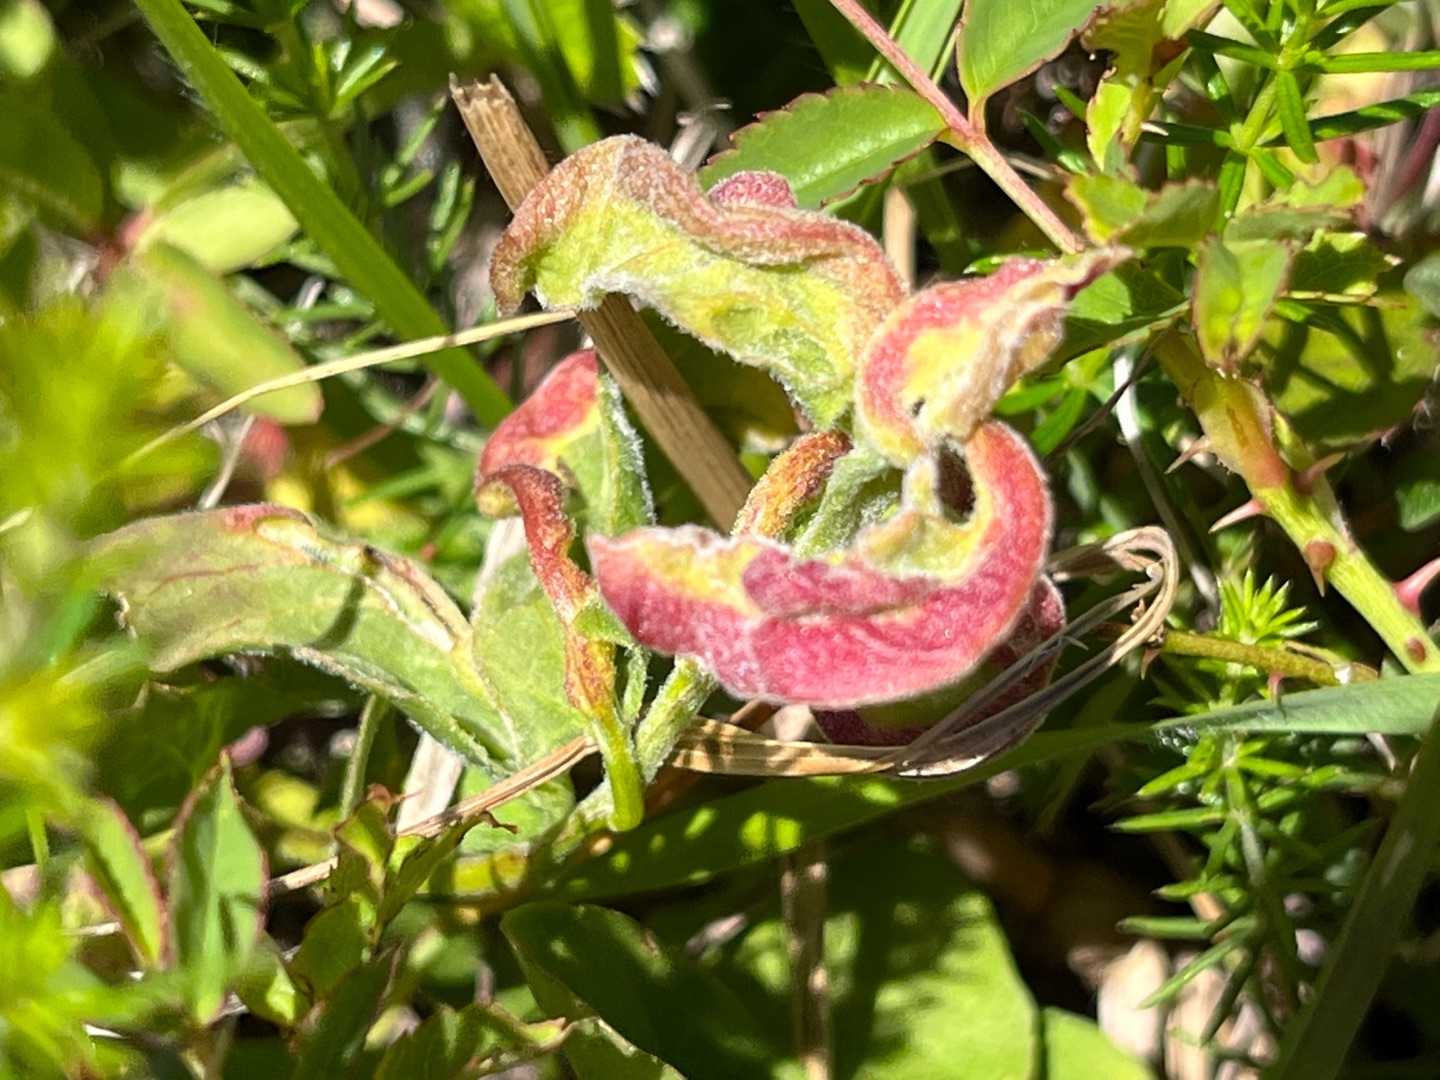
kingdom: Animalia
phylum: Arthropoda
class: Arachnida
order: Trombidiformes
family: Eriophyidae
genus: Aceria
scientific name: Aceria convolvuli
